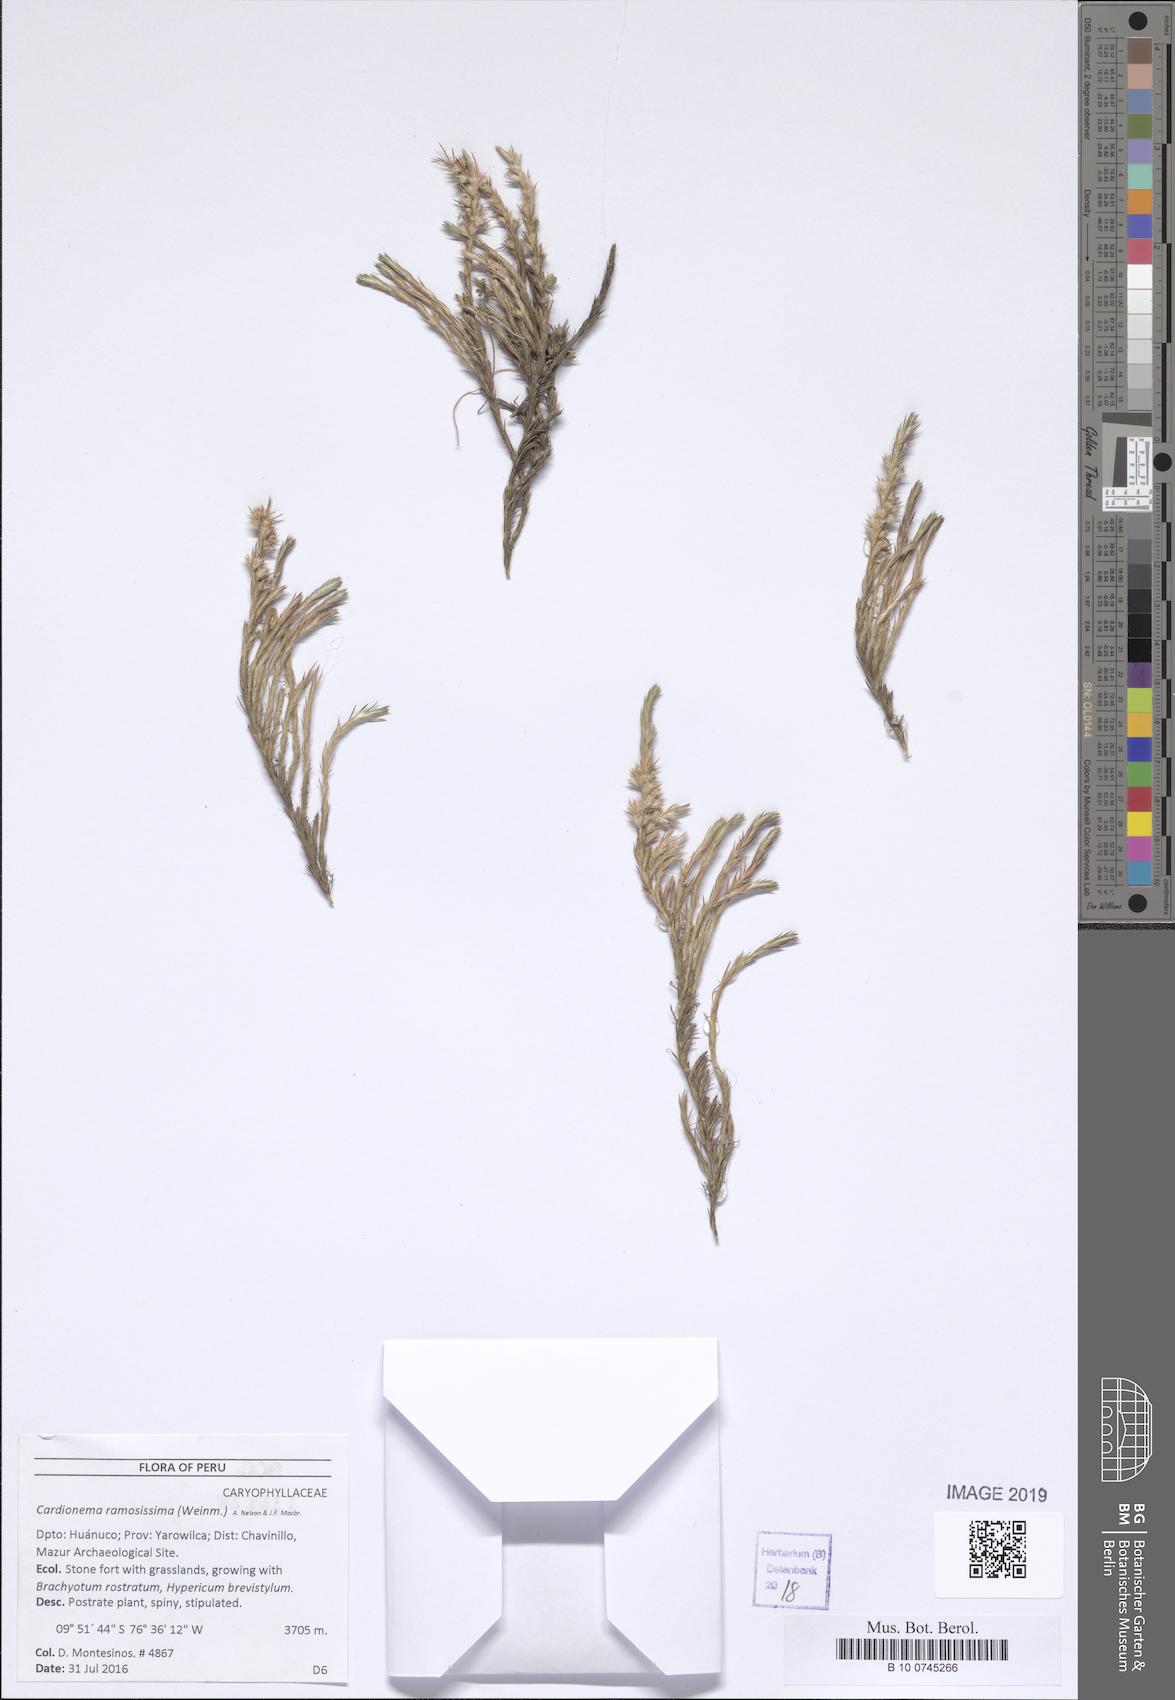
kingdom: Plantae
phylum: Tracheophyta
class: Magnoliopsida
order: Caryophyllales
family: Caryophyllaceae
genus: Cardionema
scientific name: Cardionema ramosissima
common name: Sandcarpet
